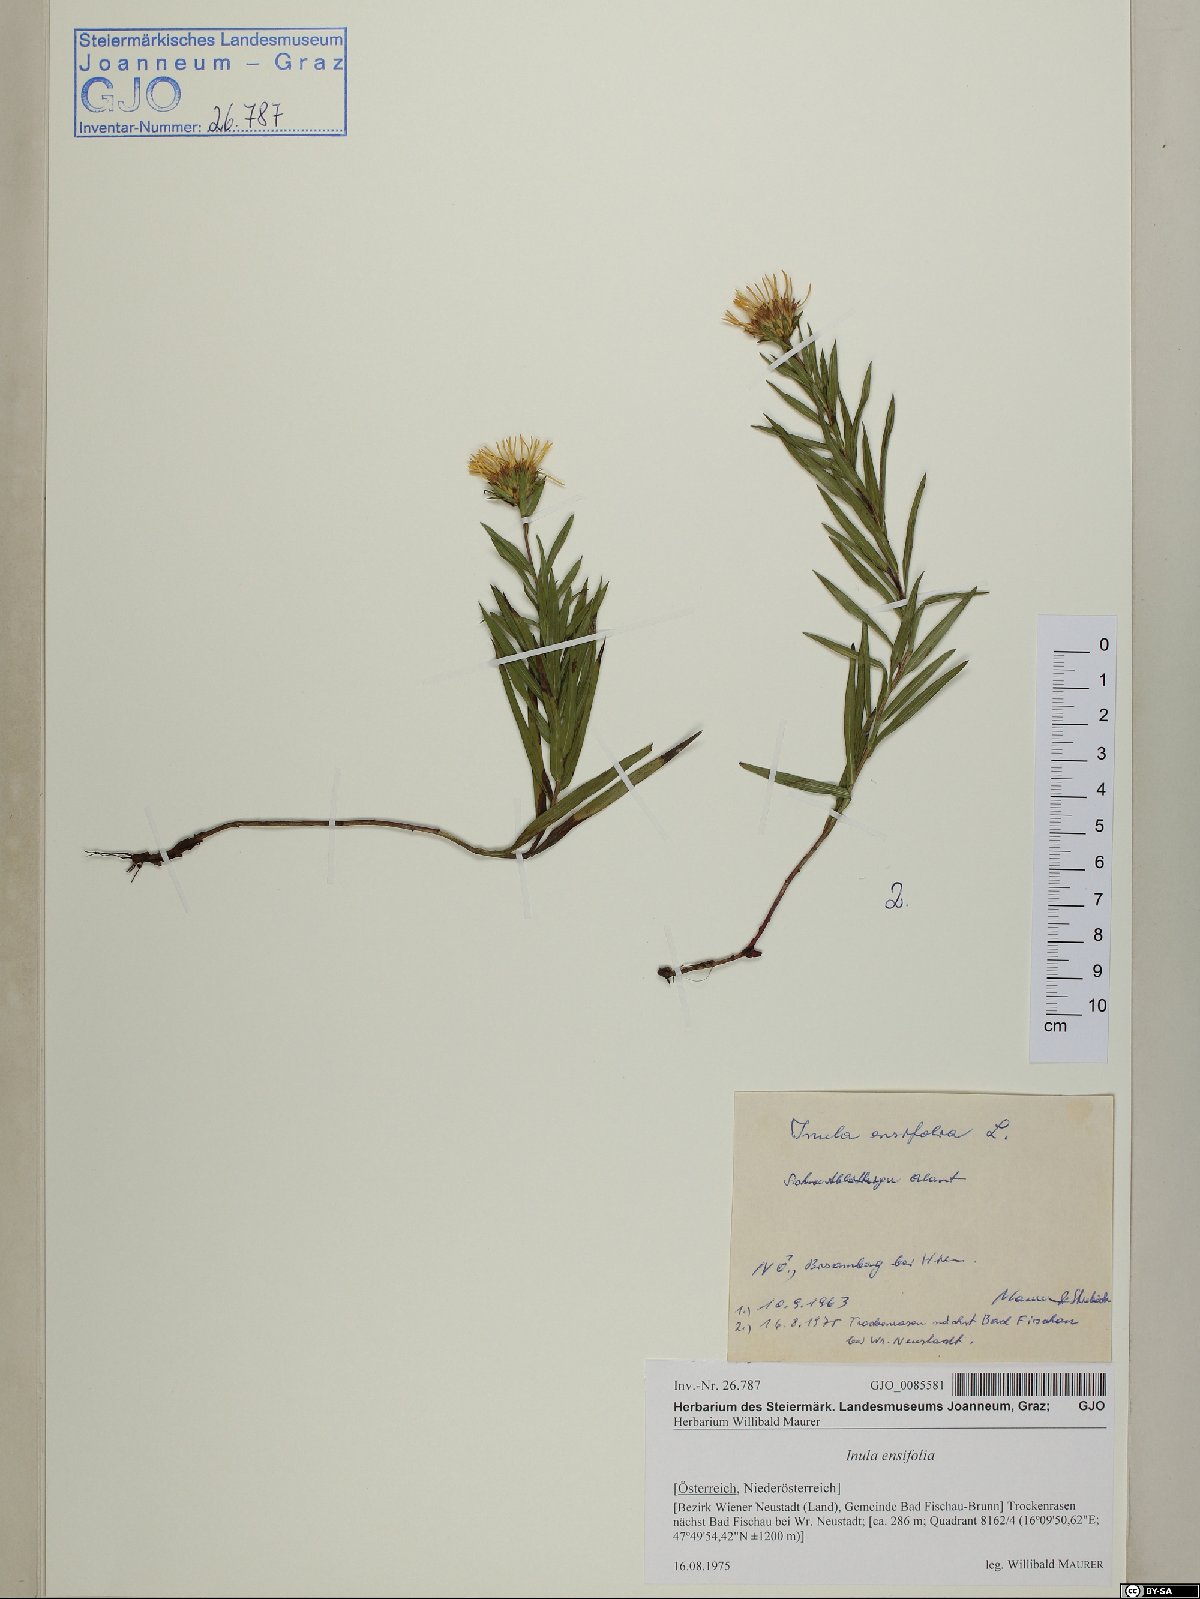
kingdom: Plantae
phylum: Tracheophyta
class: Magnoliopsida
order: Asterales
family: Asteraceae
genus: Pentanema
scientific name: Pentanema ensifolium
